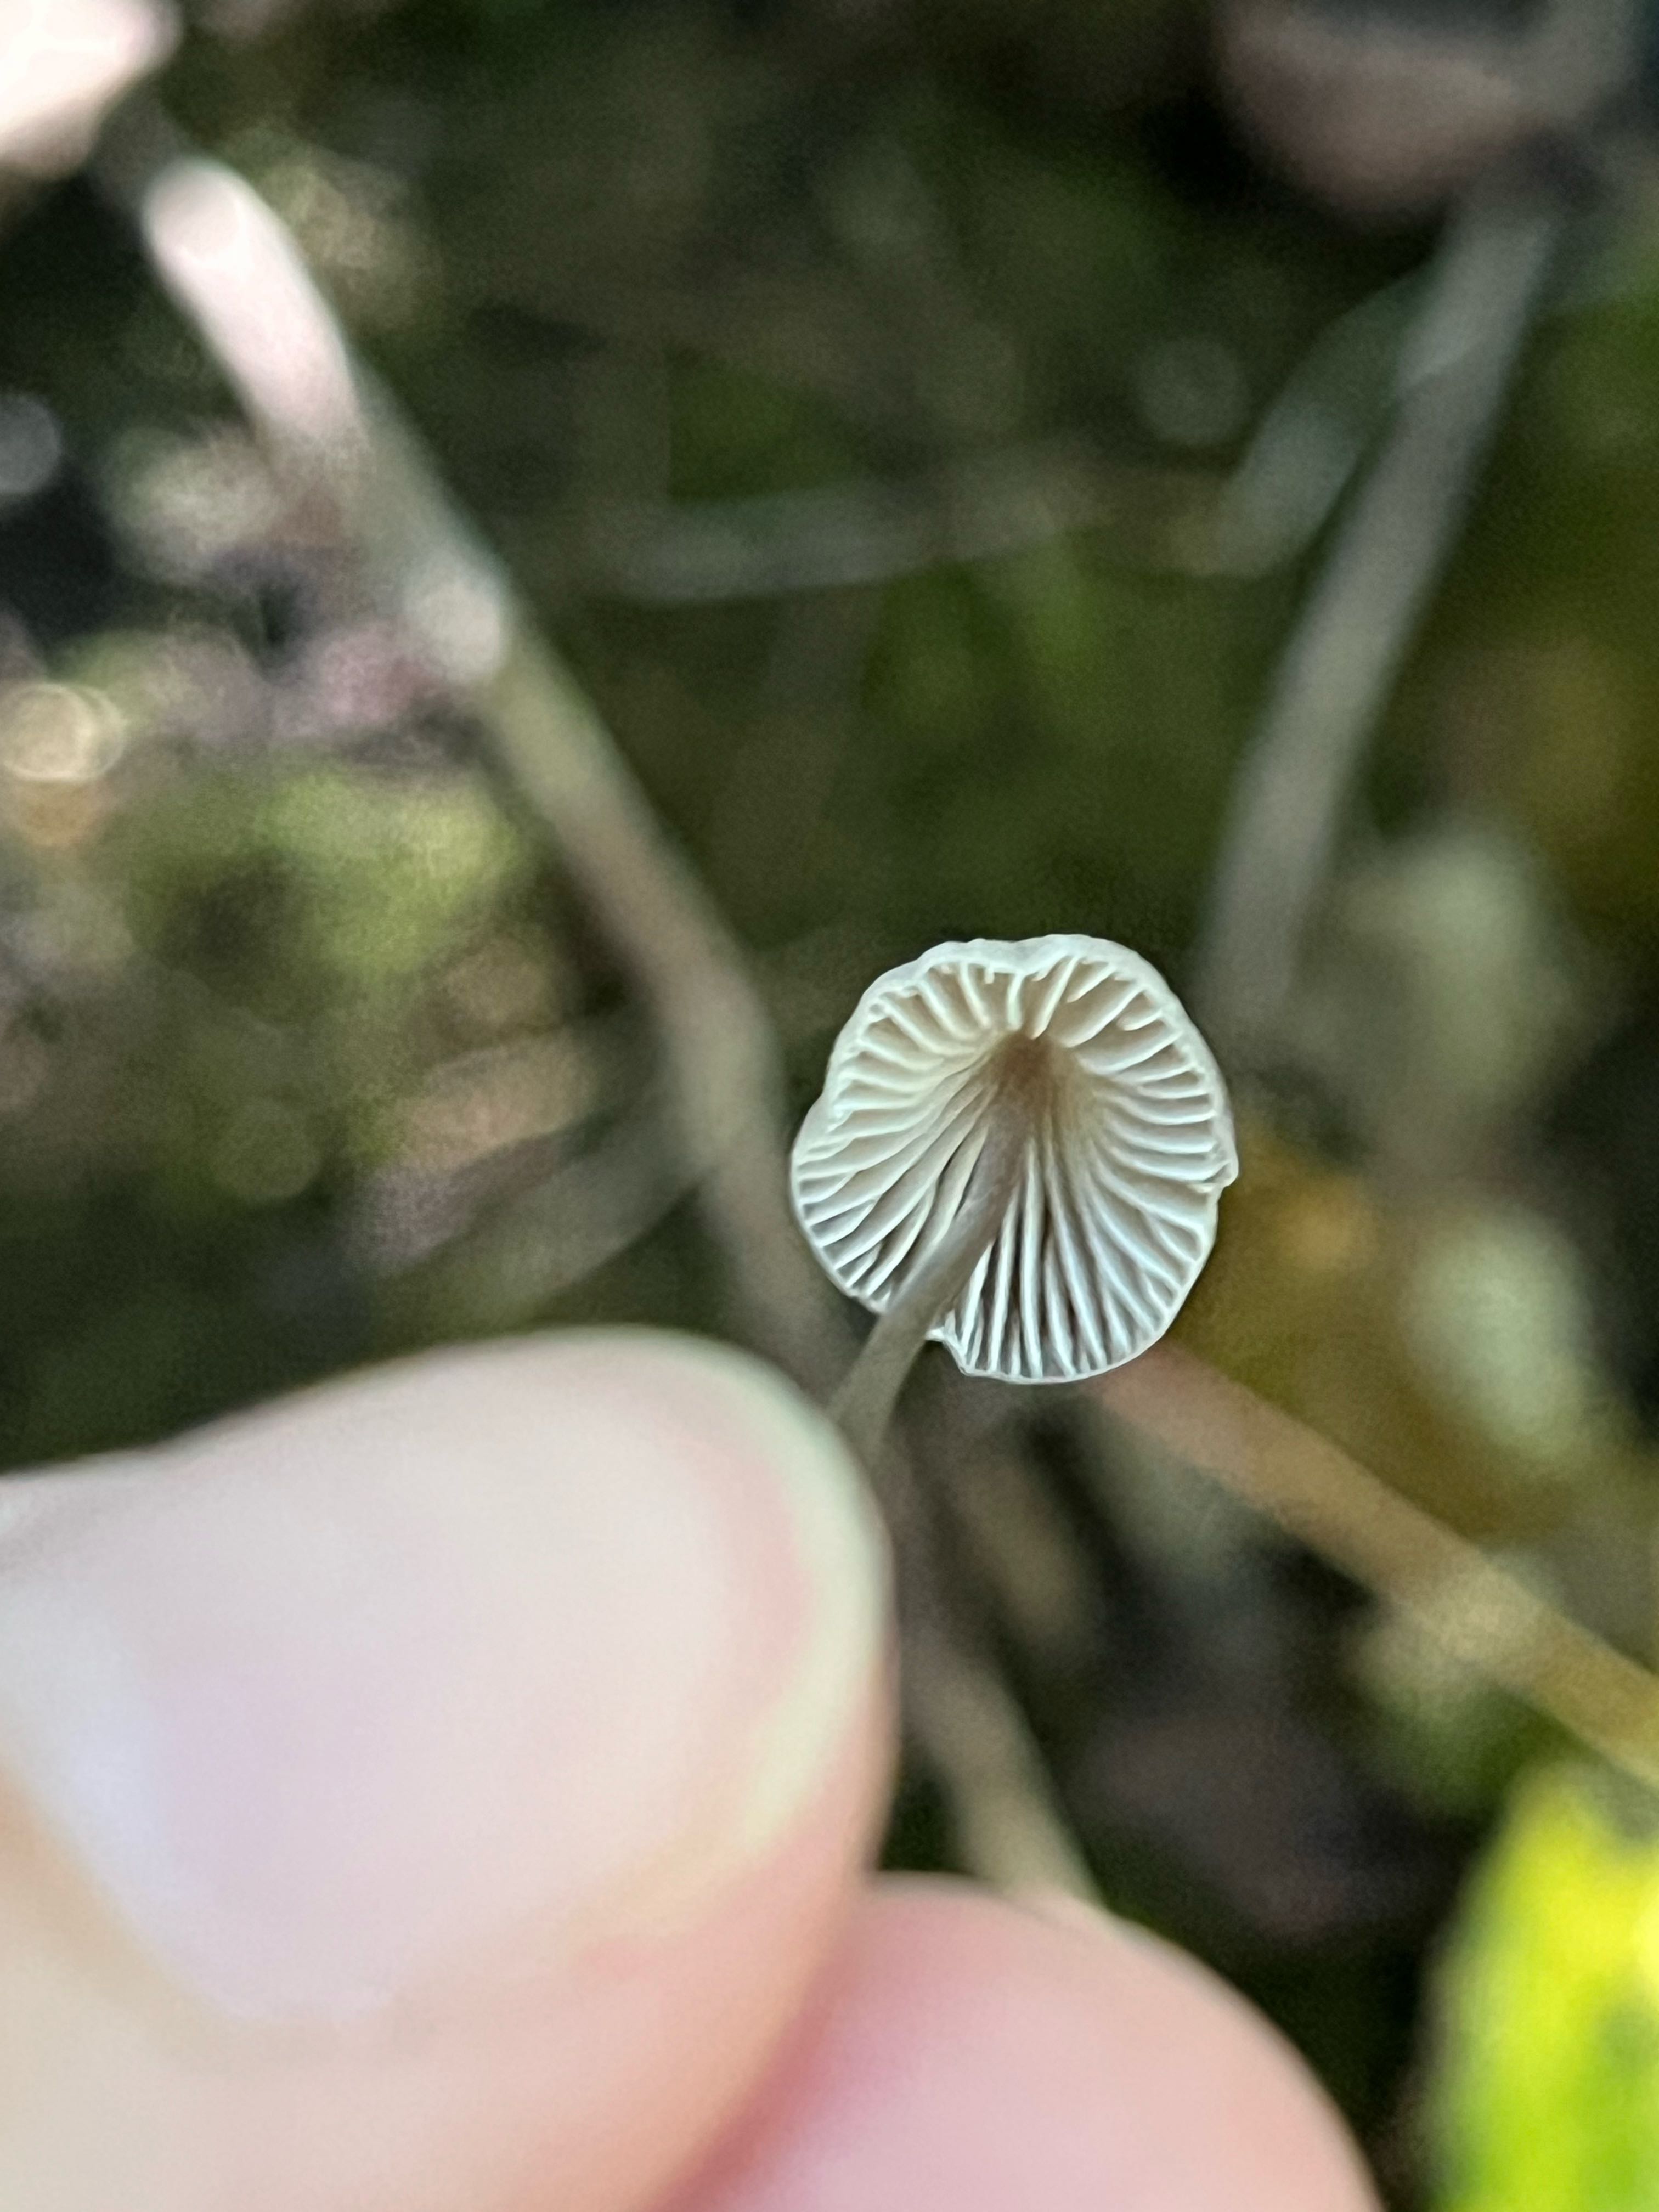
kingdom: Fungi
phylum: Basidiomycota
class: Agaricomycetes
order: Agaricales
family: Mycenaceae
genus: Mycena
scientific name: Mycena
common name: huesvamp
